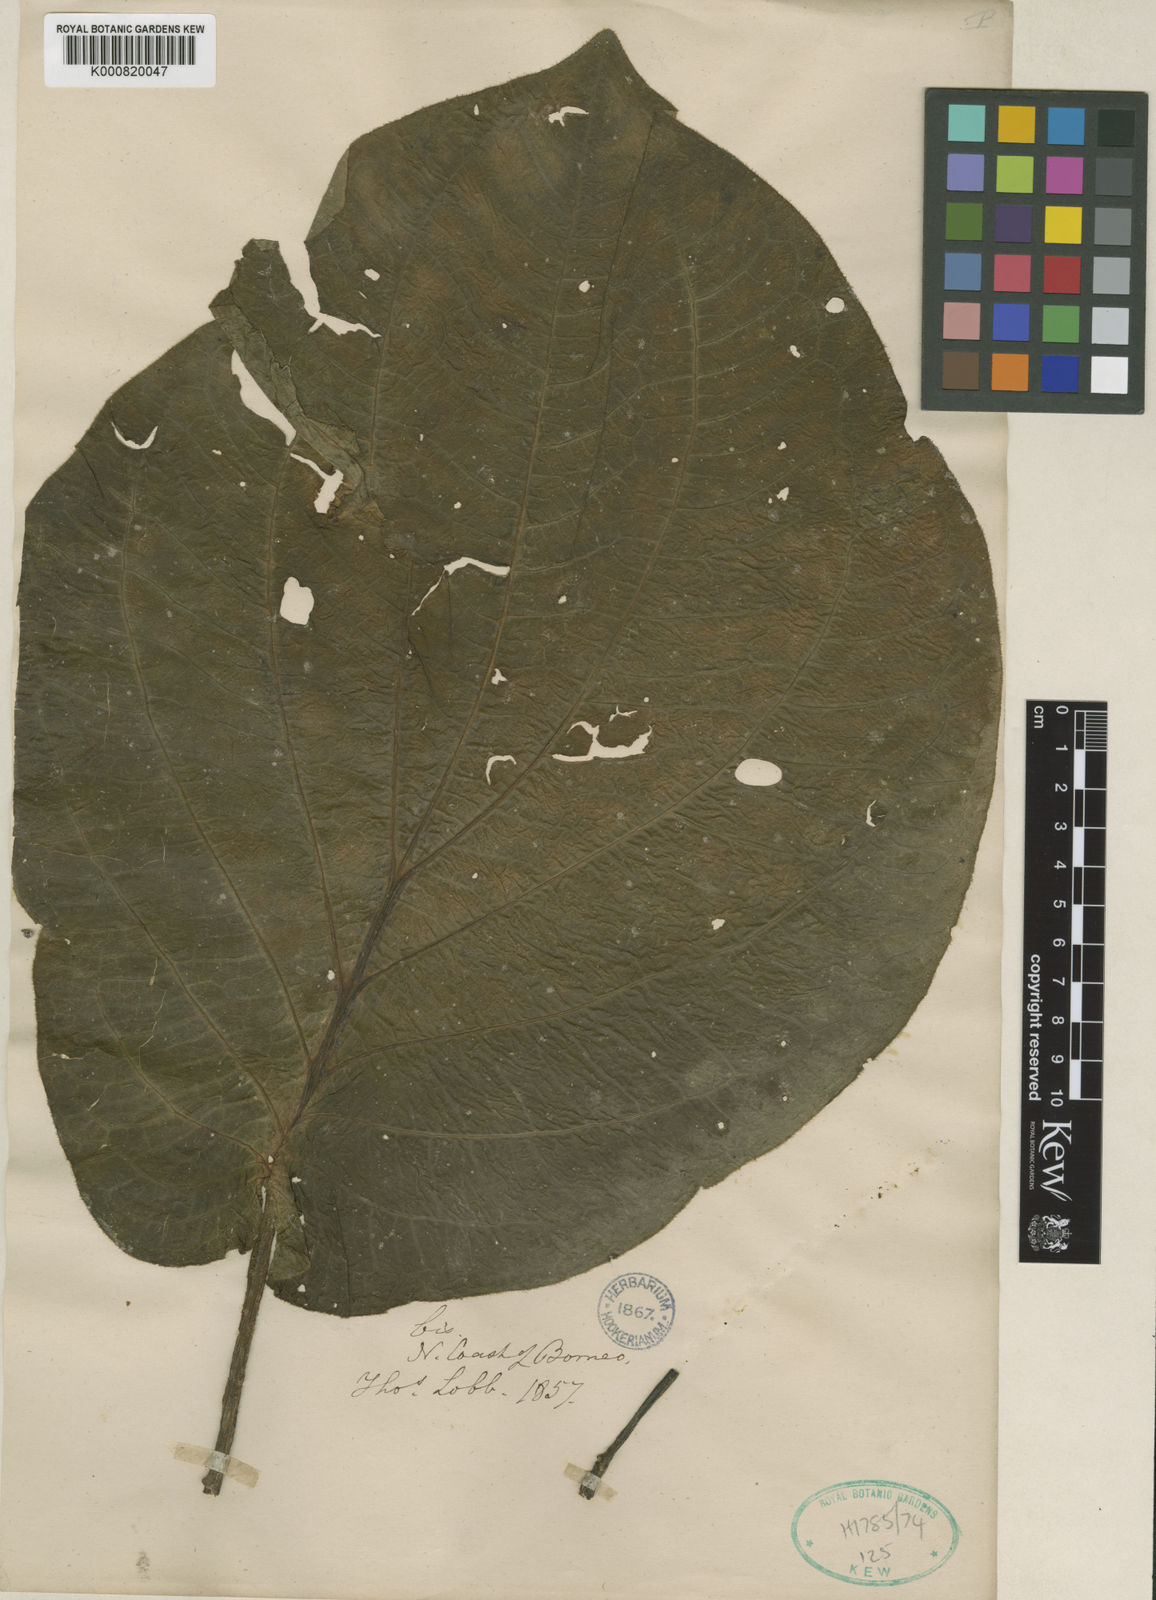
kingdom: Plantae
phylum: Tracheophyta
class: Magnoliopsida
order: Piperales
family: Piperaceae
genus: Piper
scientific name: Piper vestitum
